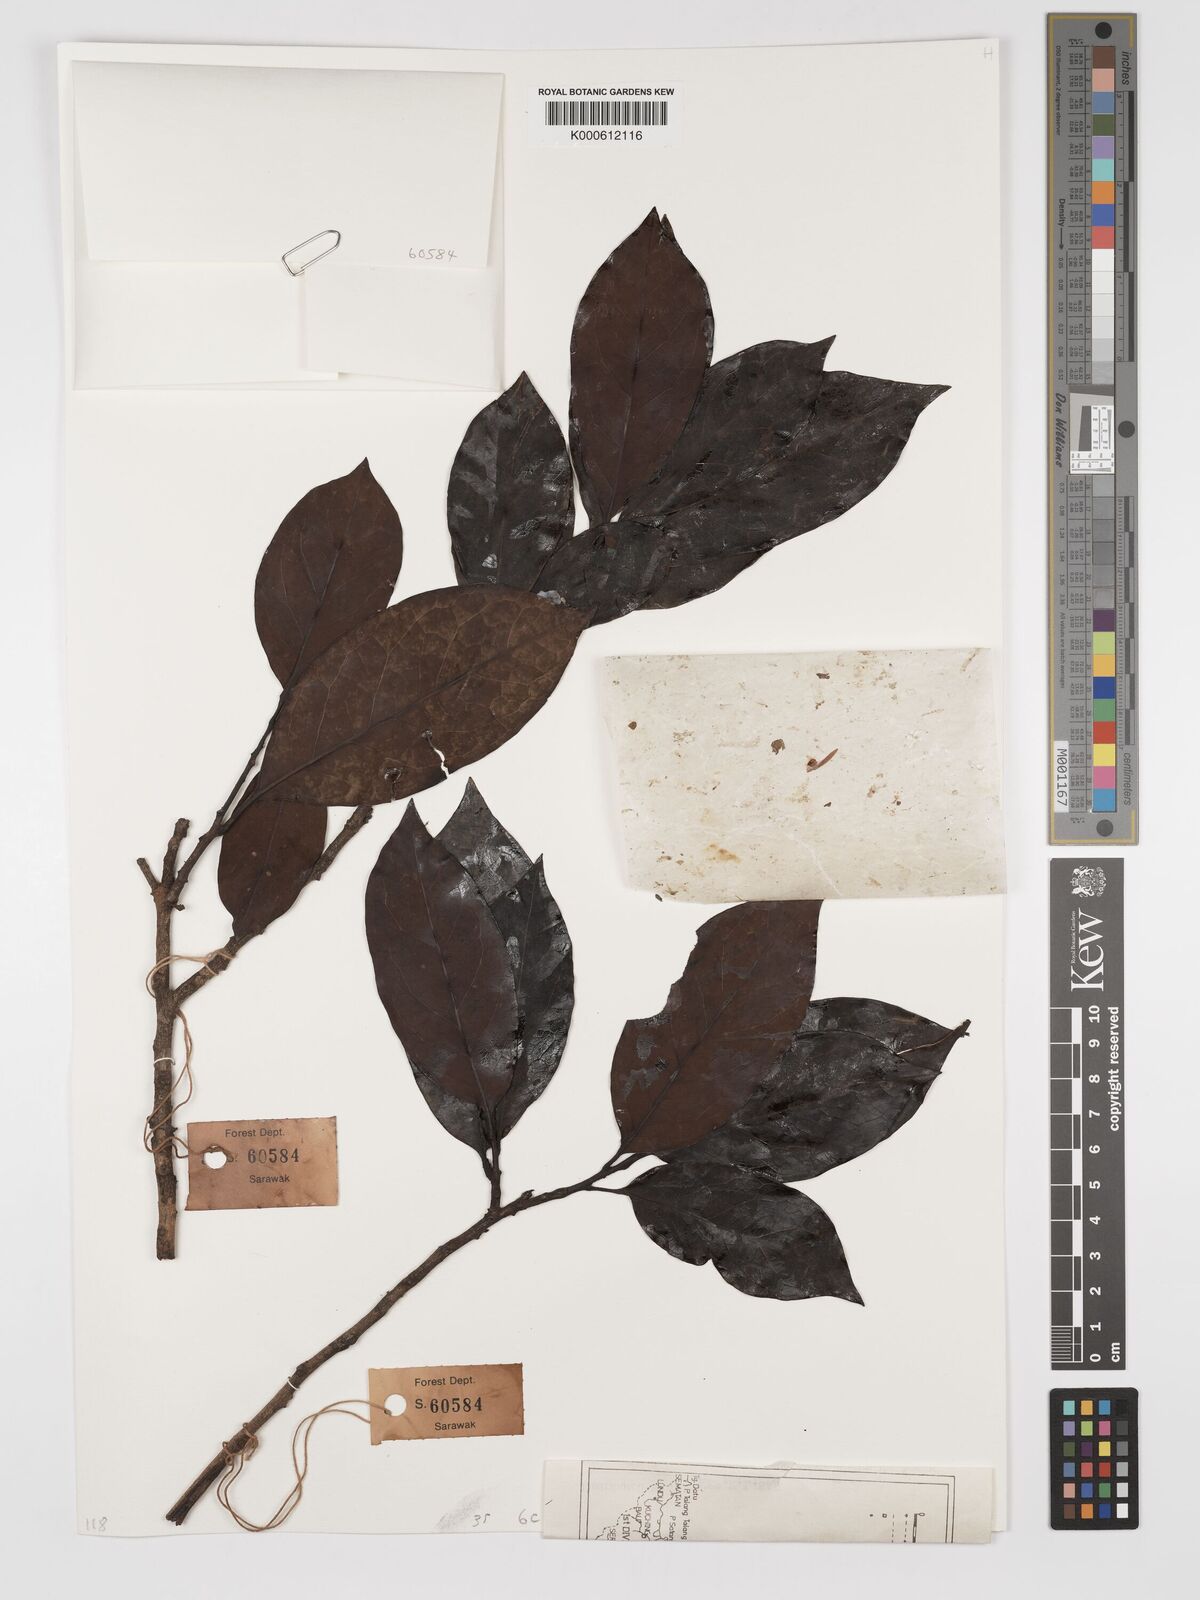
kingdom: Plantae
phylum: Tracheophyta
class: Magnoliopsida
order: Proteales
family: Proteaceae
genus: Helicia
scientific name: Helicia petiolaris
